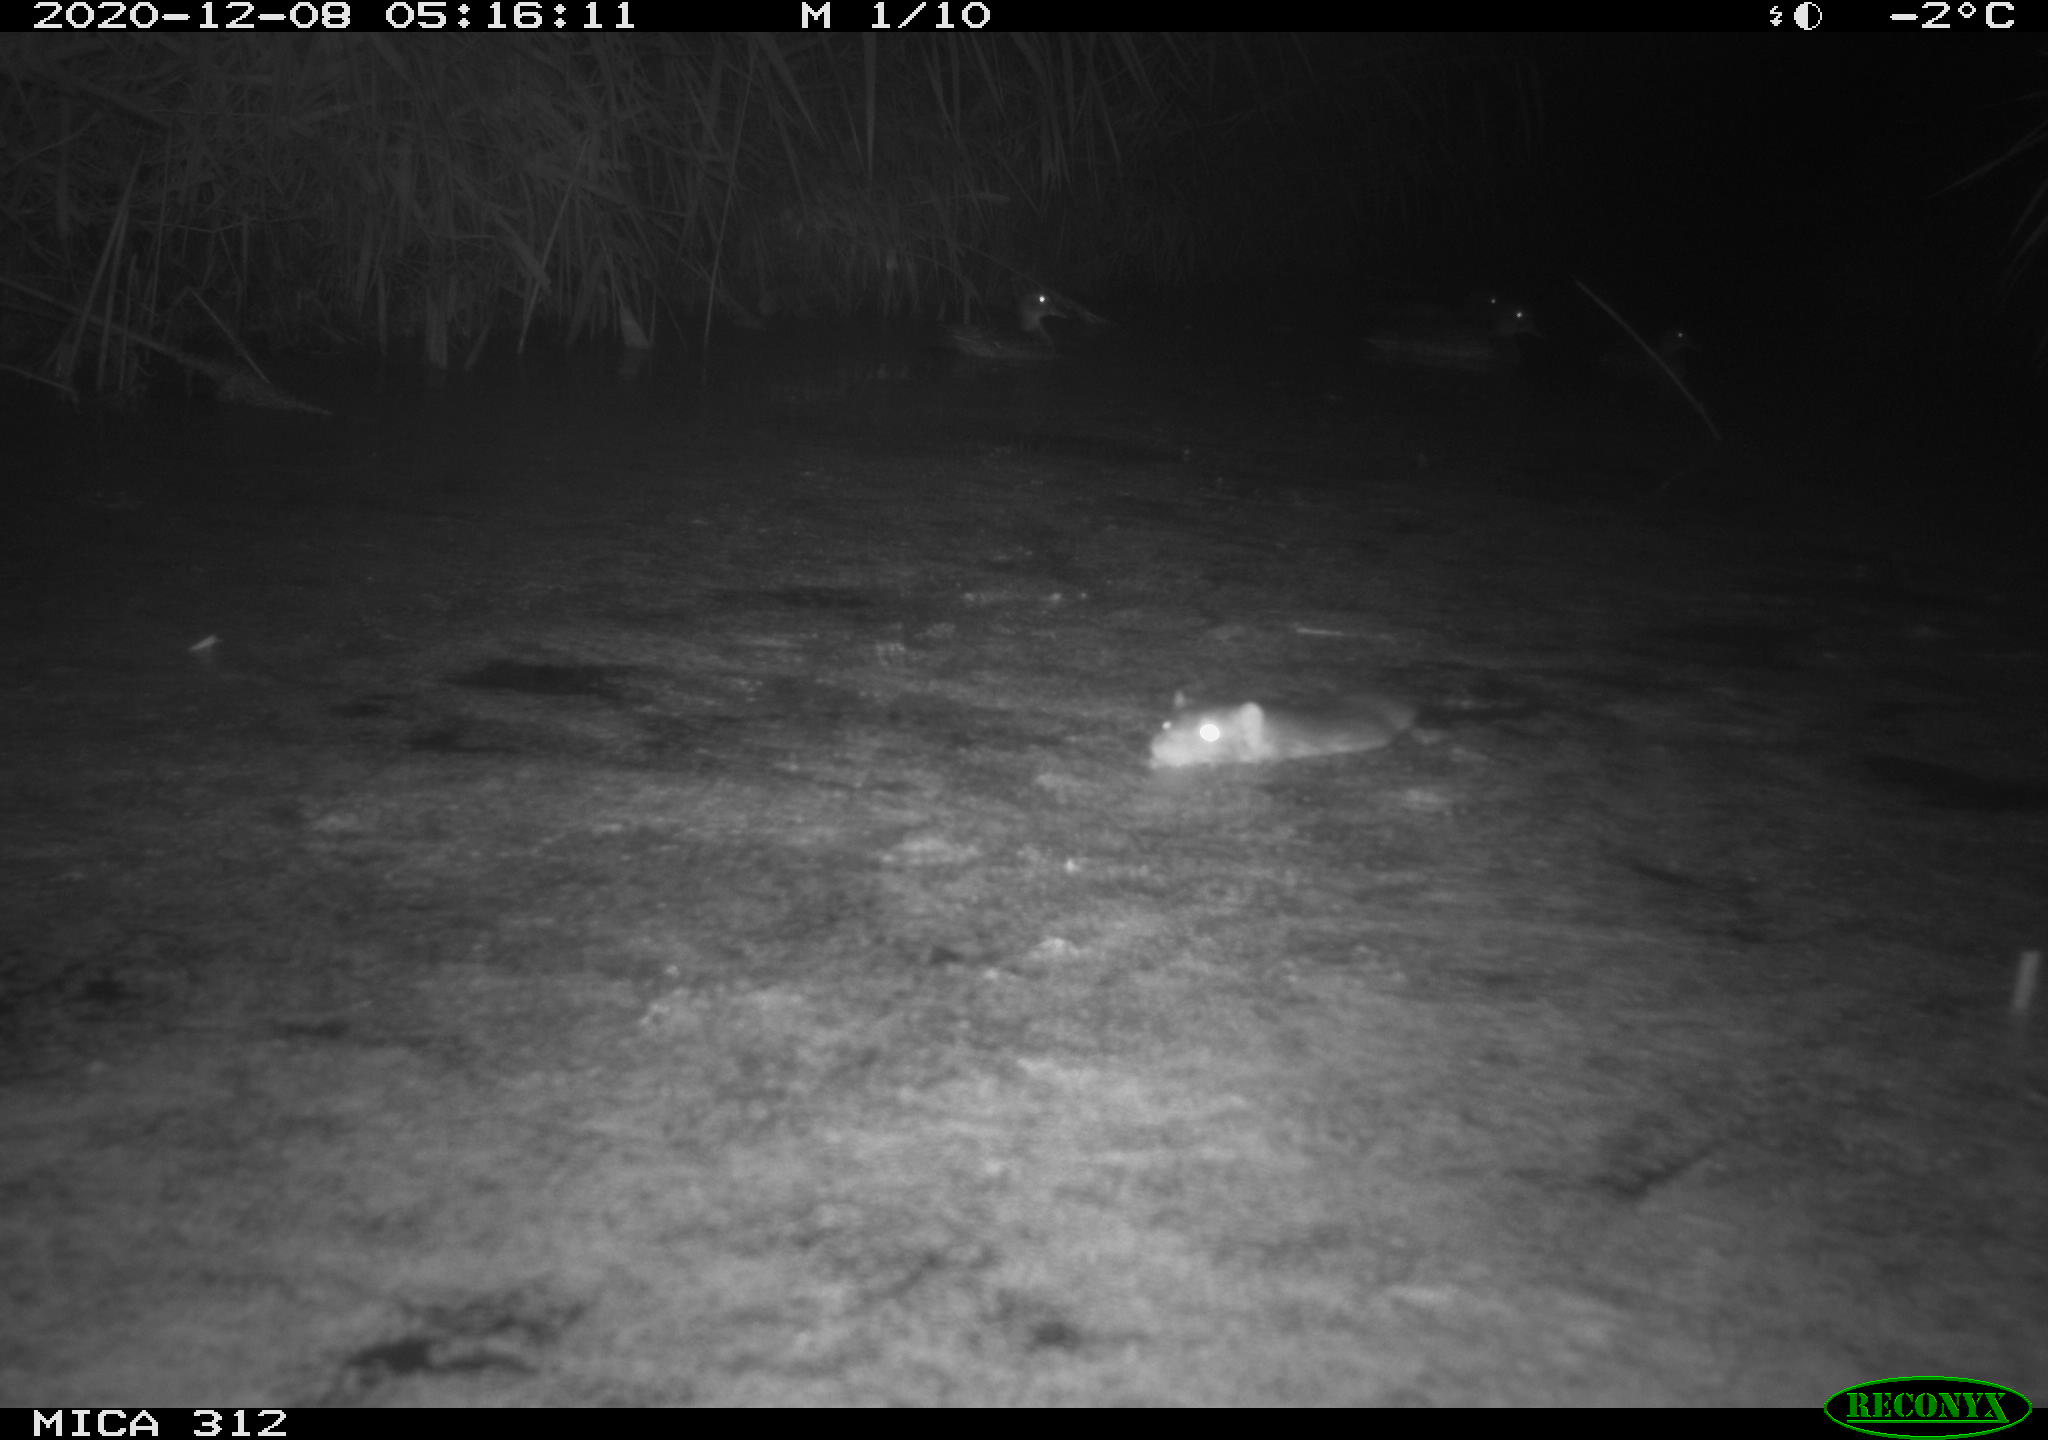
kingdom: Animalia
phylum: Chordata
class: Mammalia
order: Rodentia
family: Muridae
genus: Rattus
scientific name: Rattus norvegicus
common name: Brown rat
